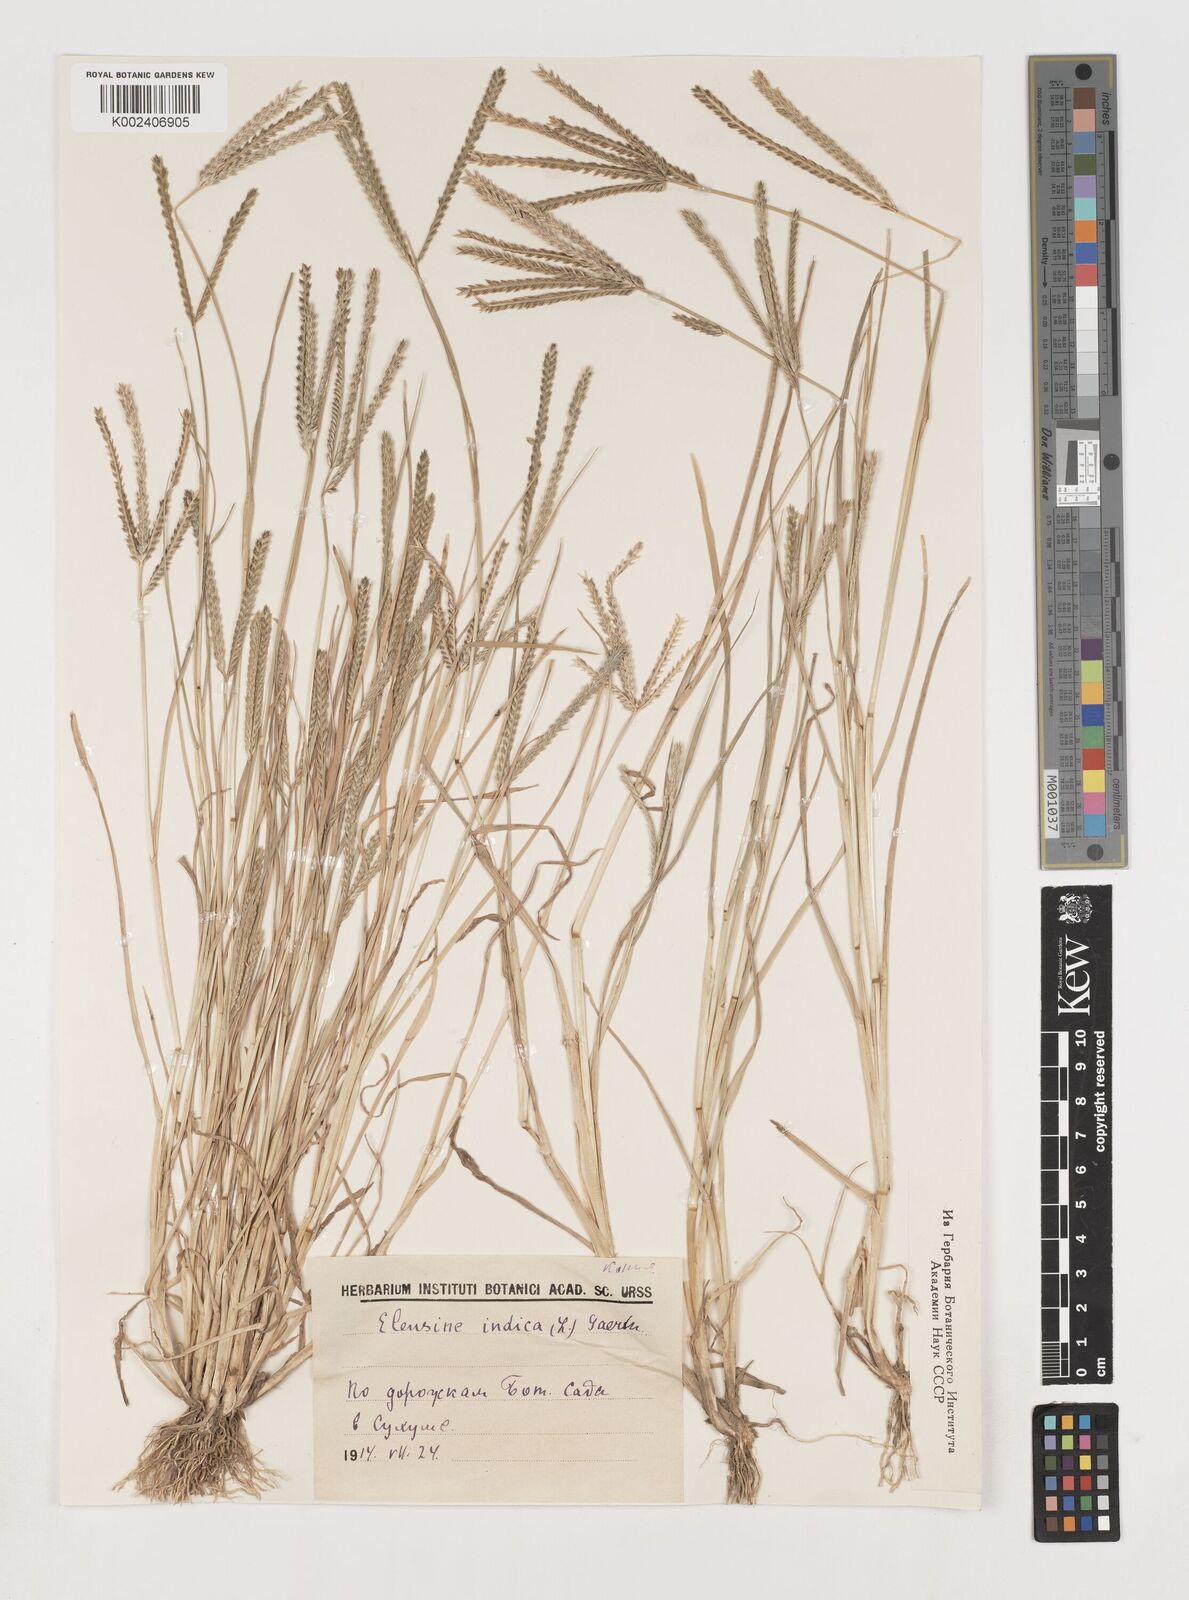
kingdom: Plantae
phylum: Tracheophyta
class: Liliopsida
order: Poales
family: Poaceae
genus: Eleusine
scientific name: Eleusine indica
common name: Yard-grass
